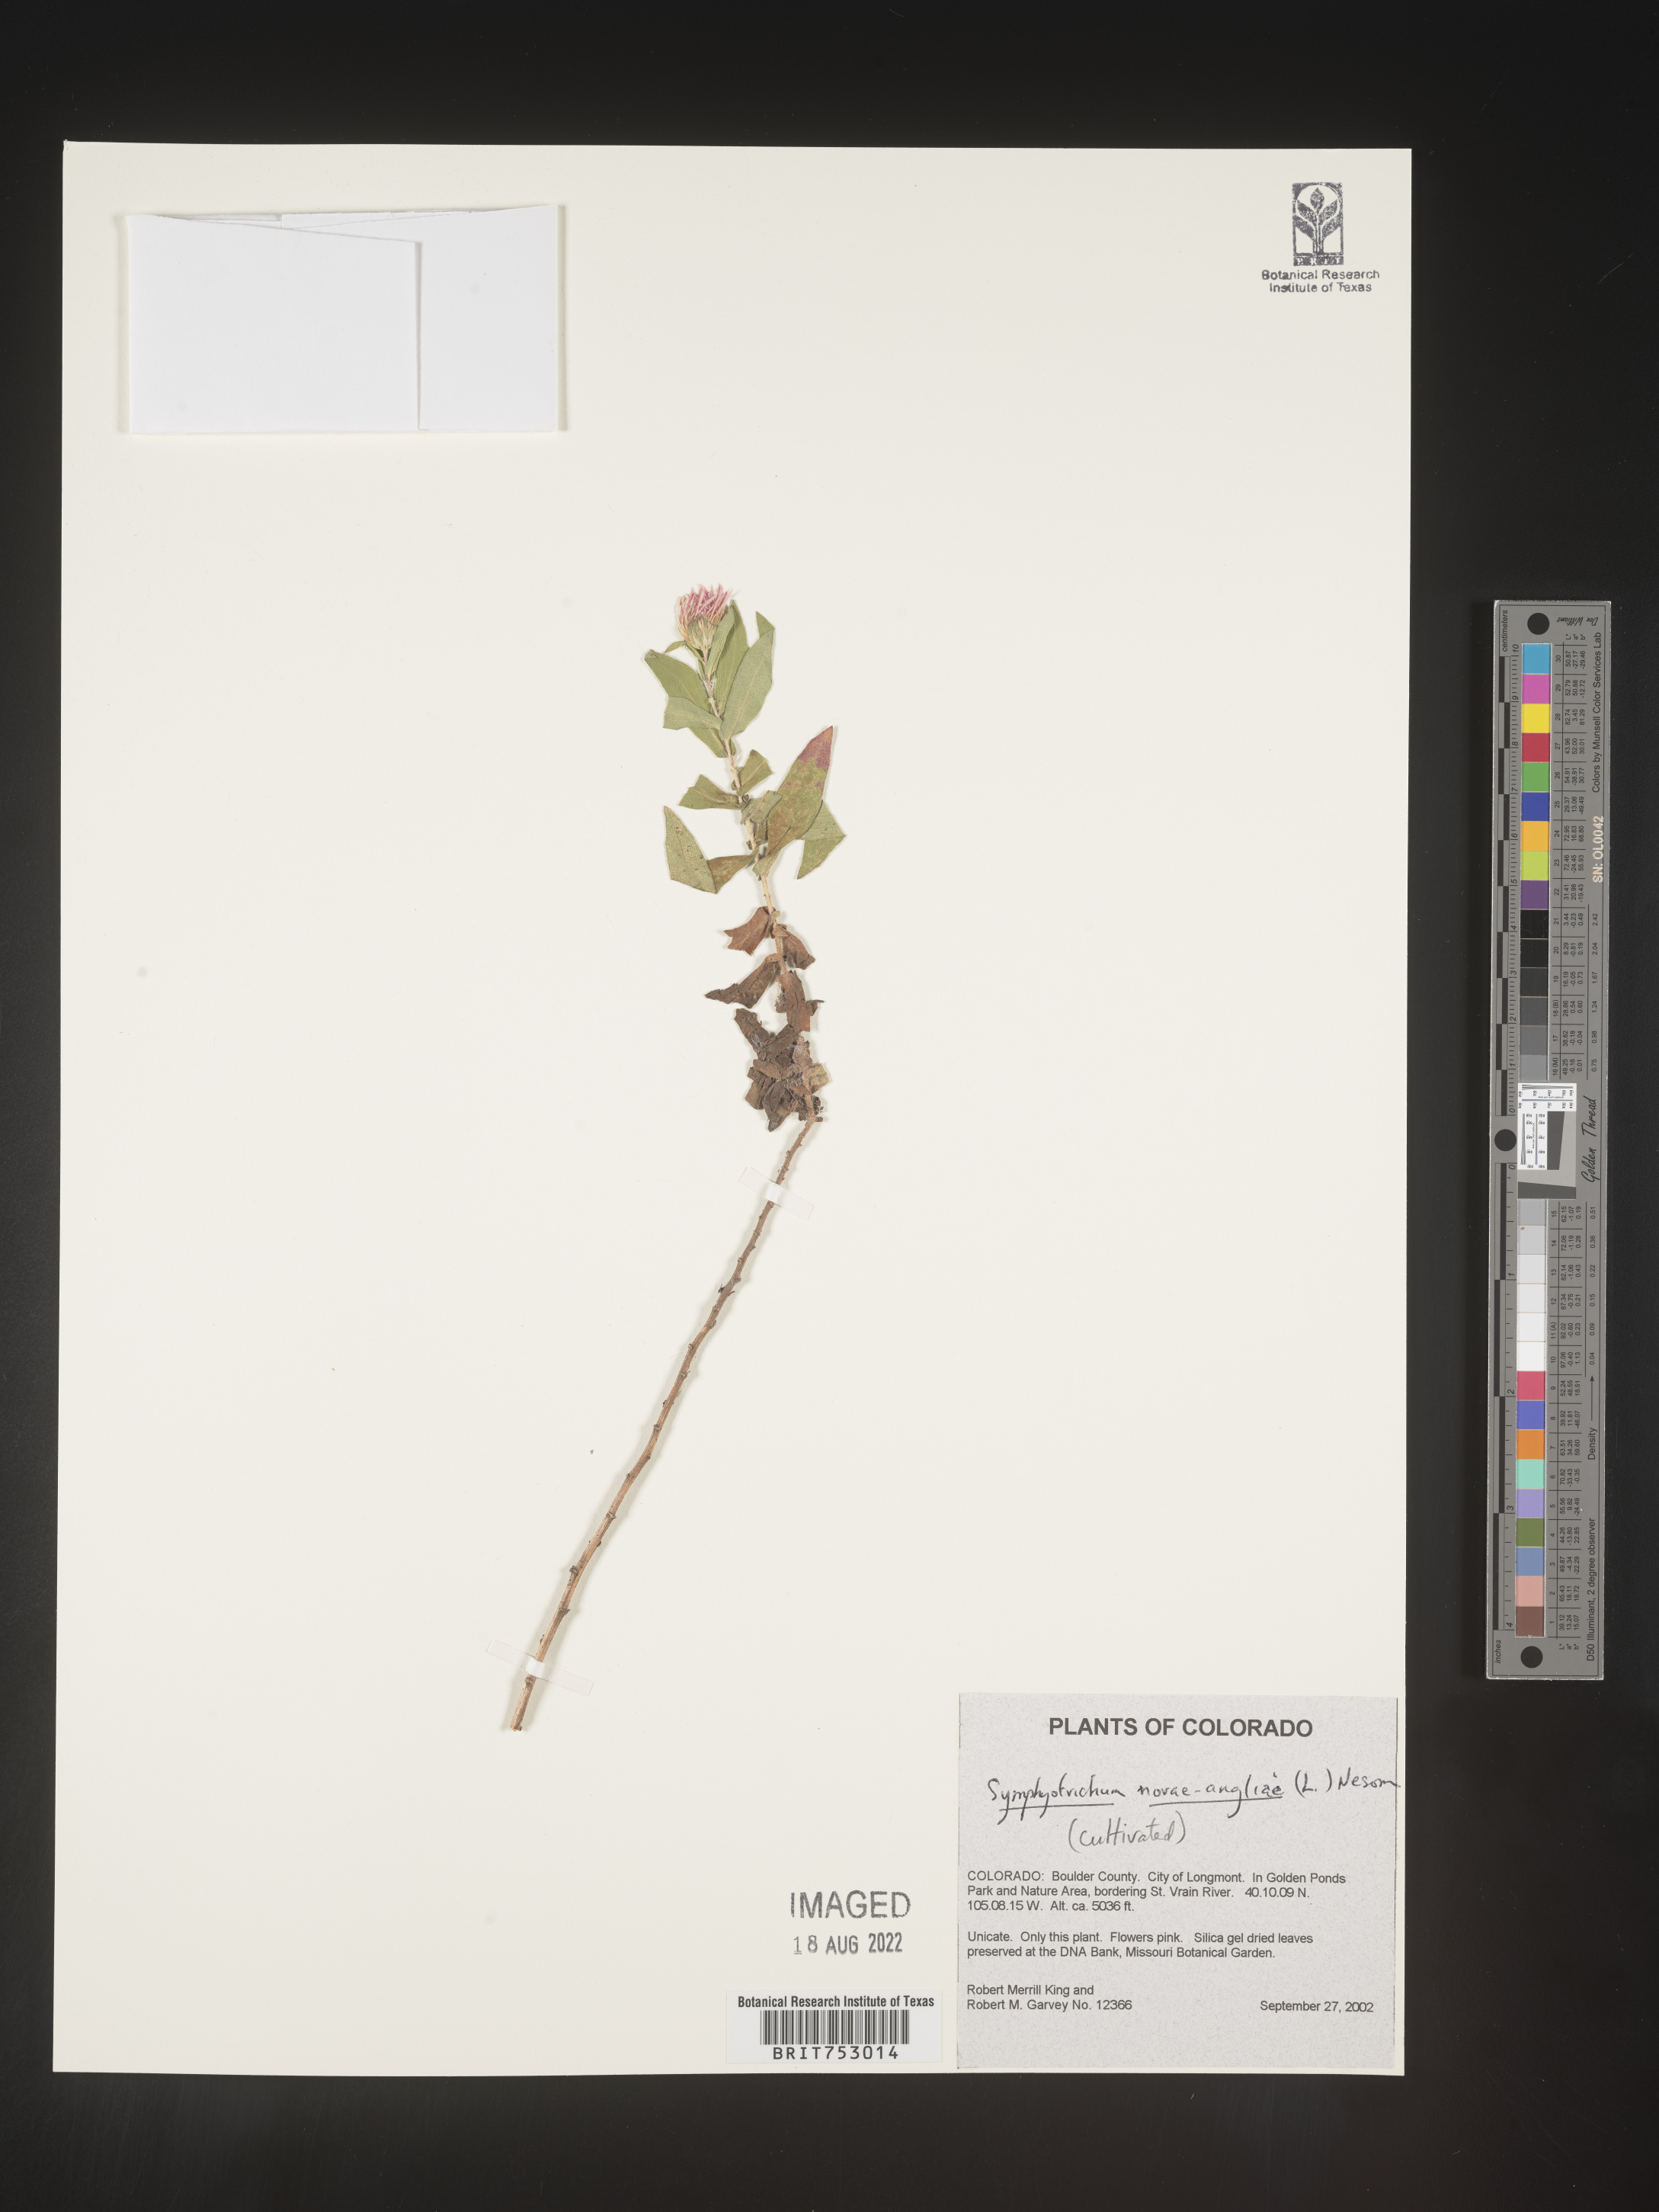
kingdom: Plantae
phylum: Tracheophyta
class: Magnoliopsida
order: Asterales
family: Asteraceae
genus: Symphyotrichum
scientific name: Symphyotrichum novae-angliae
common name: Michaelmas daisy
